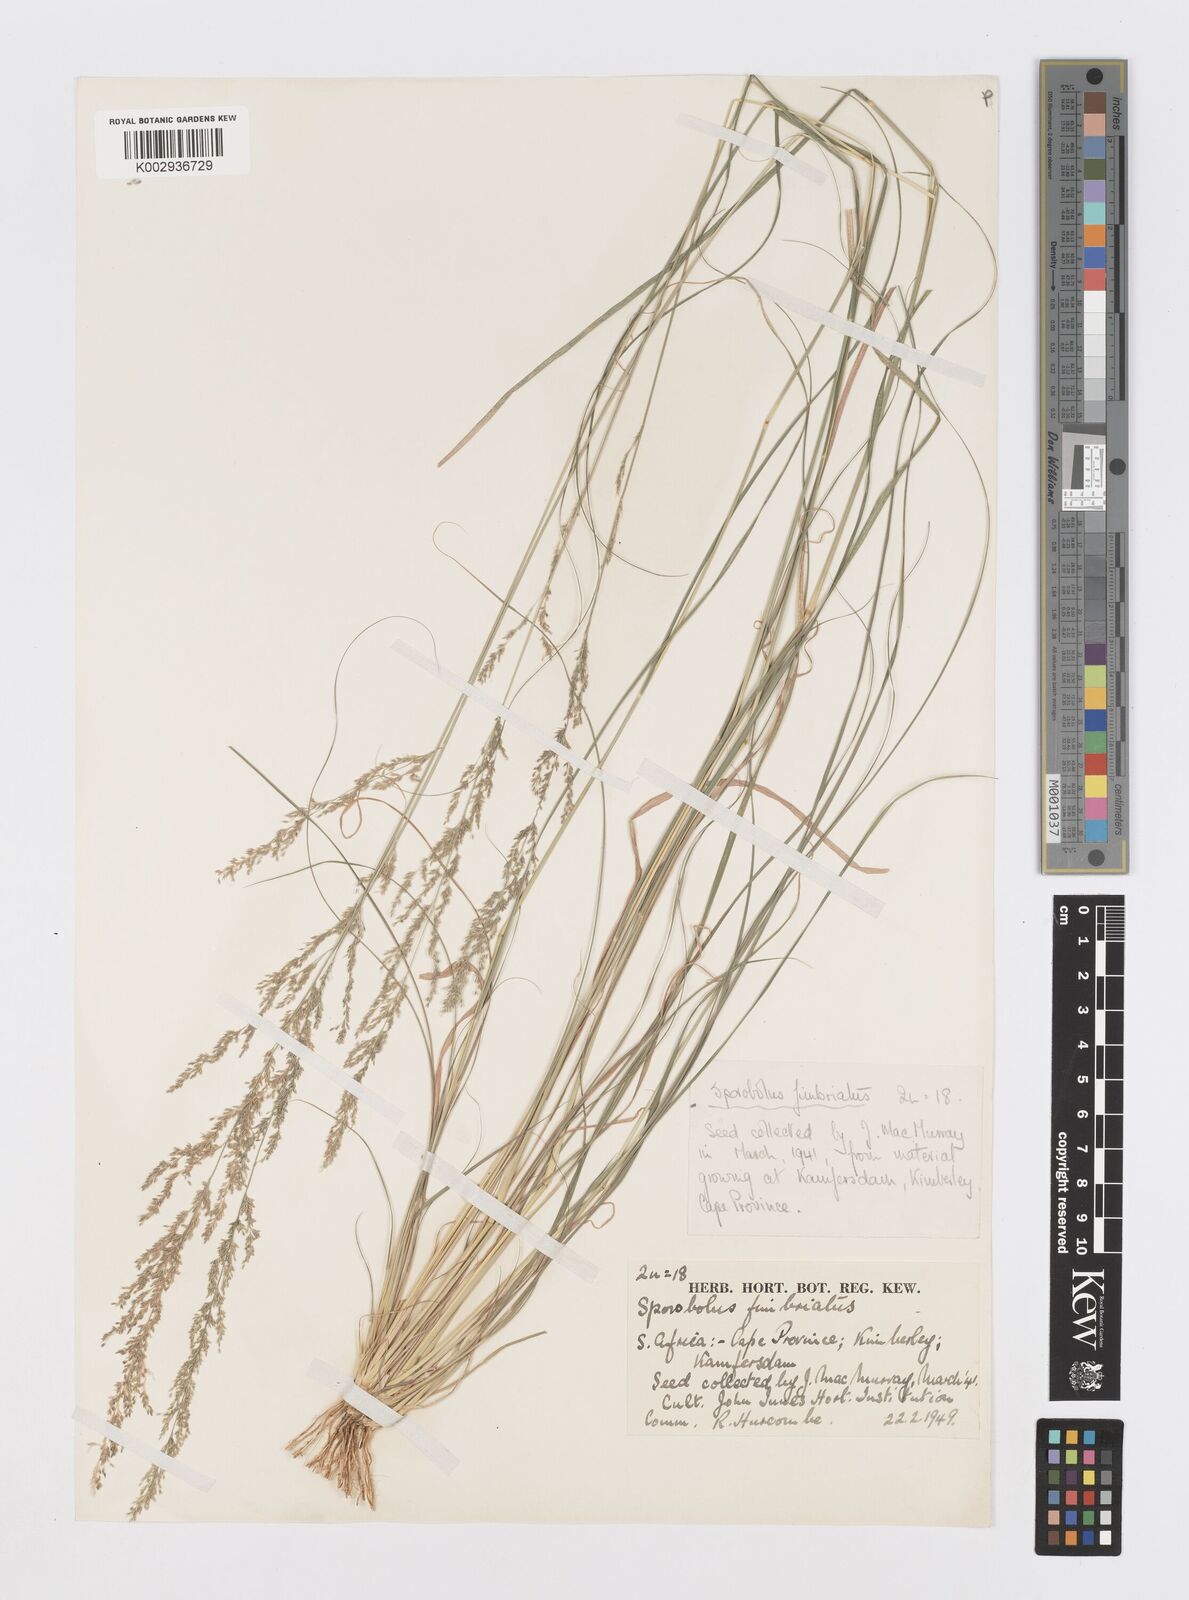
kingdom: Plantae
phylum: Tracheophyta
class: Liliopsida
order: Poales
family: Poaceae
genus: Sporobolus
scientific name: Sporobolus fimbriatus
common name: Fringed dropseed
